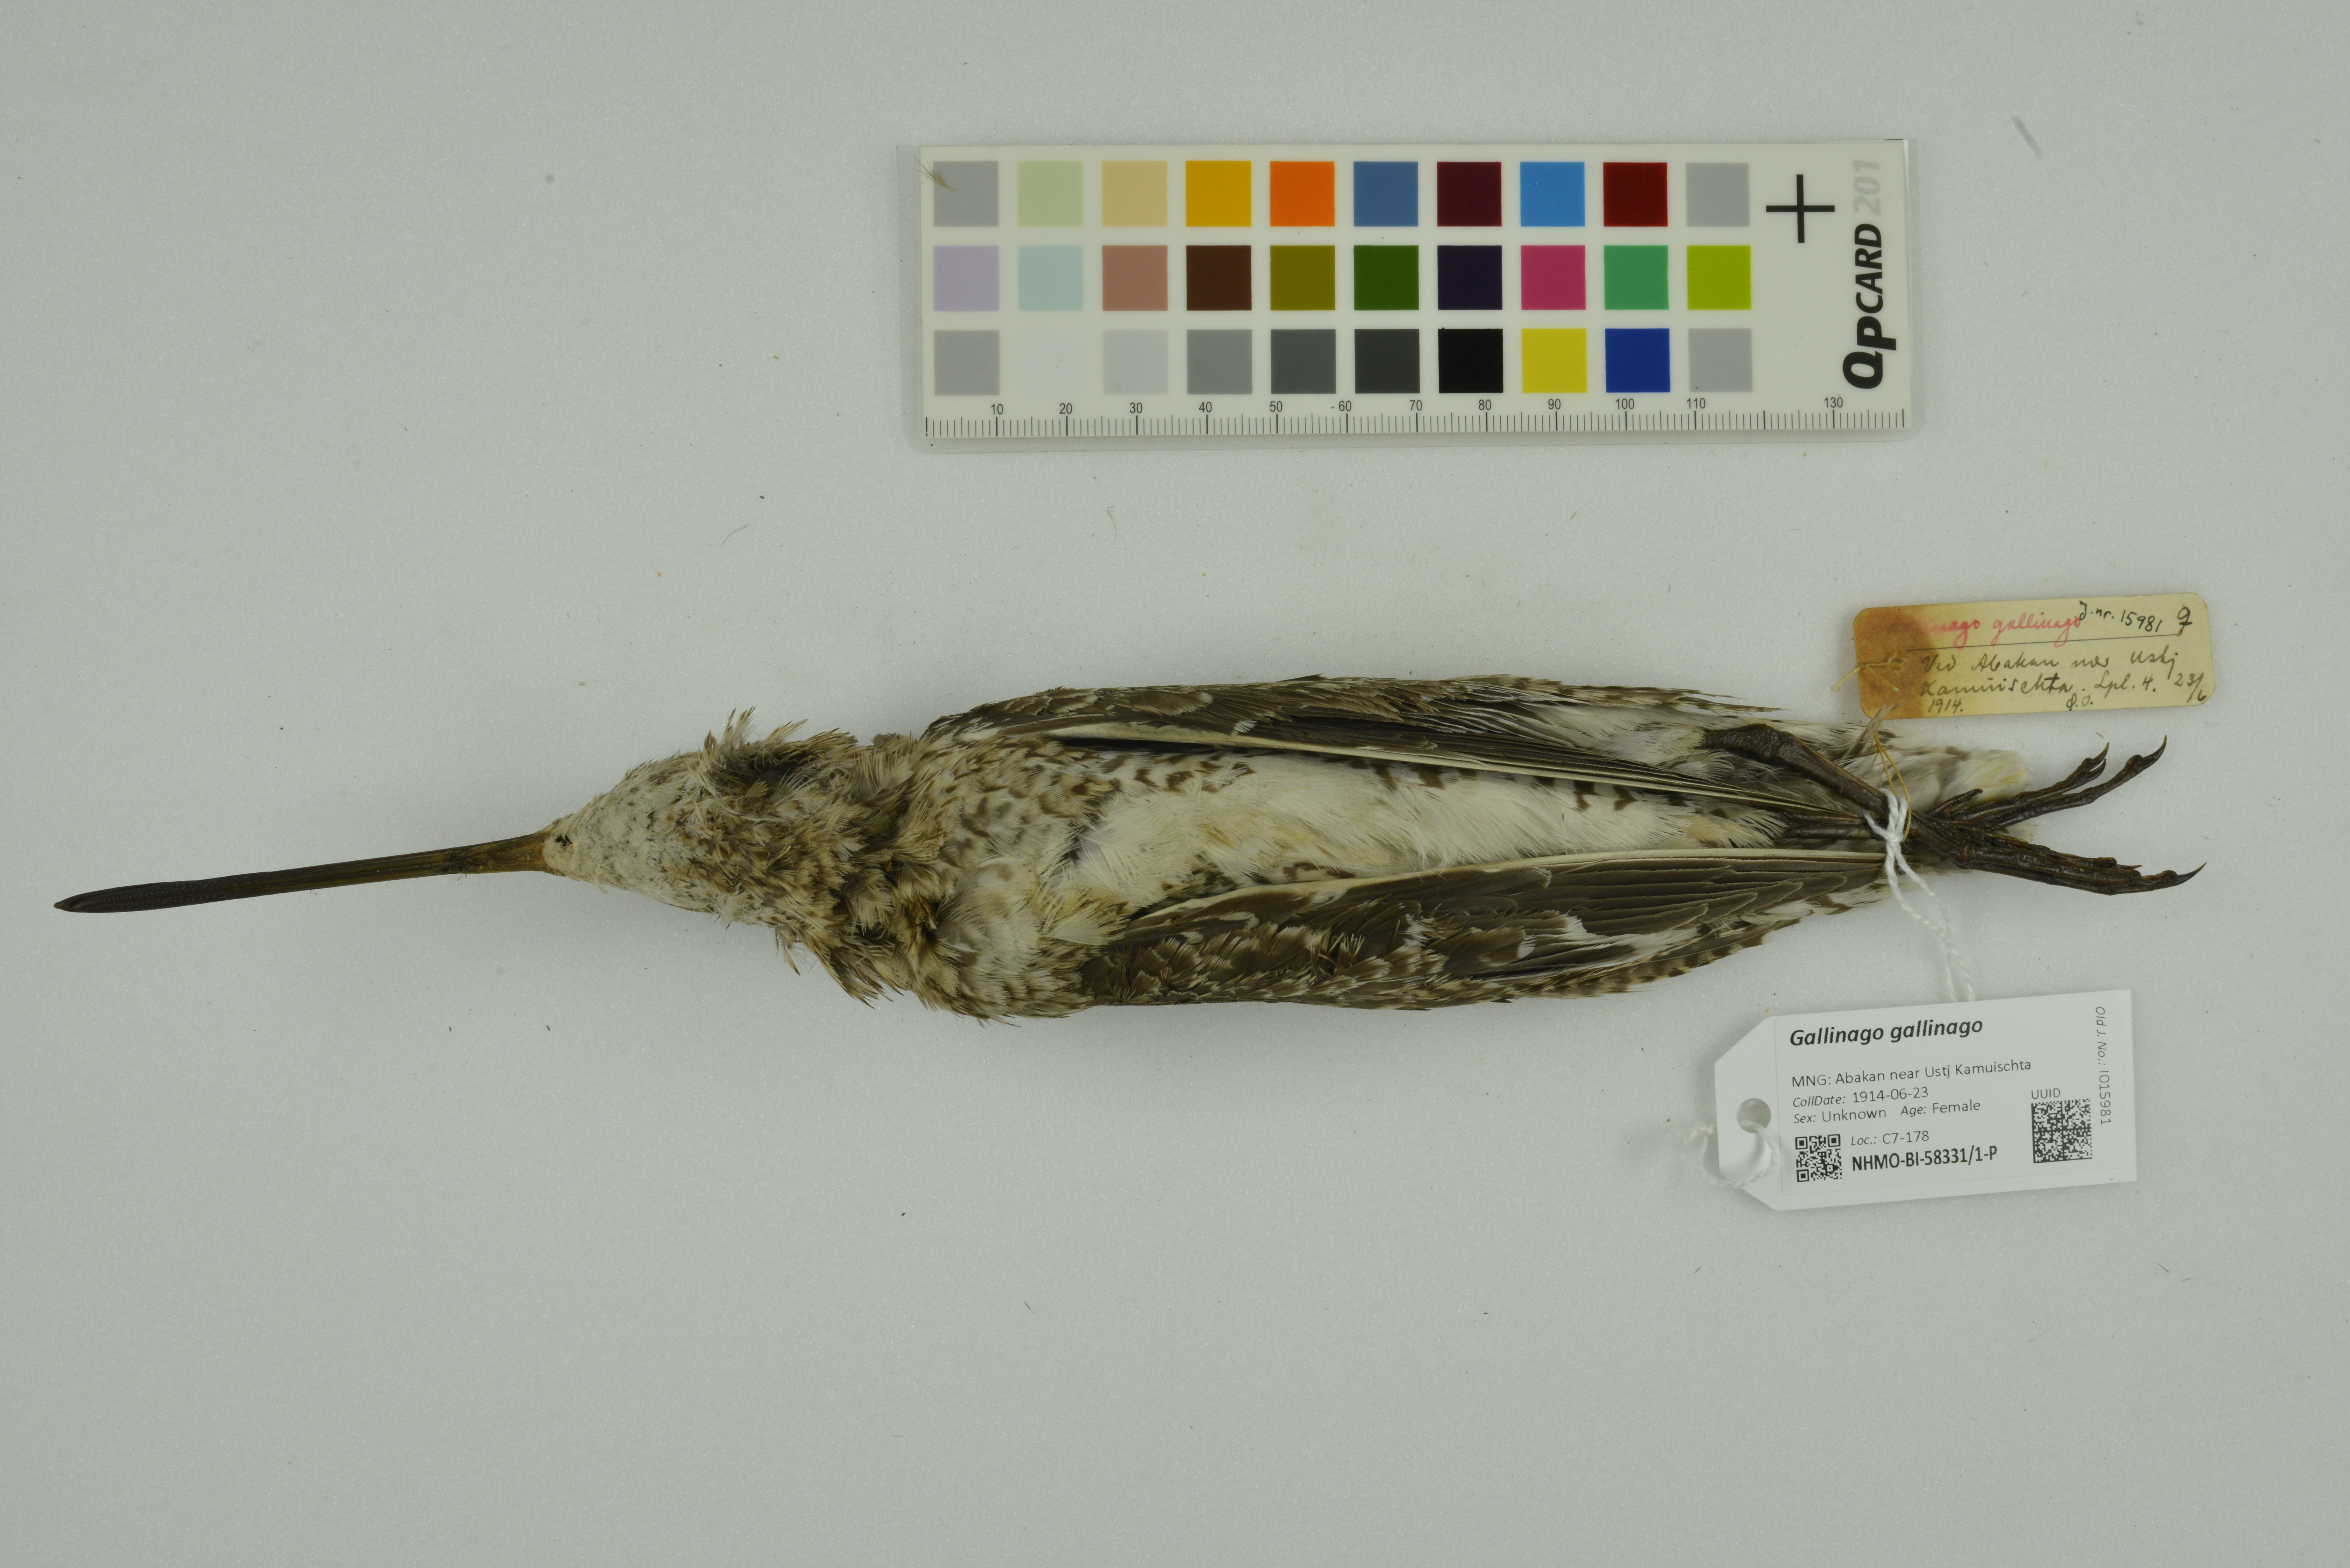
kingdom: Animalia
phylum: Chordata
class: Aves
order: Charadriiformes
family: Scolopacidae
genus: Gallinago
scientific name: Gallinago gallinago
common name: Common snipe
